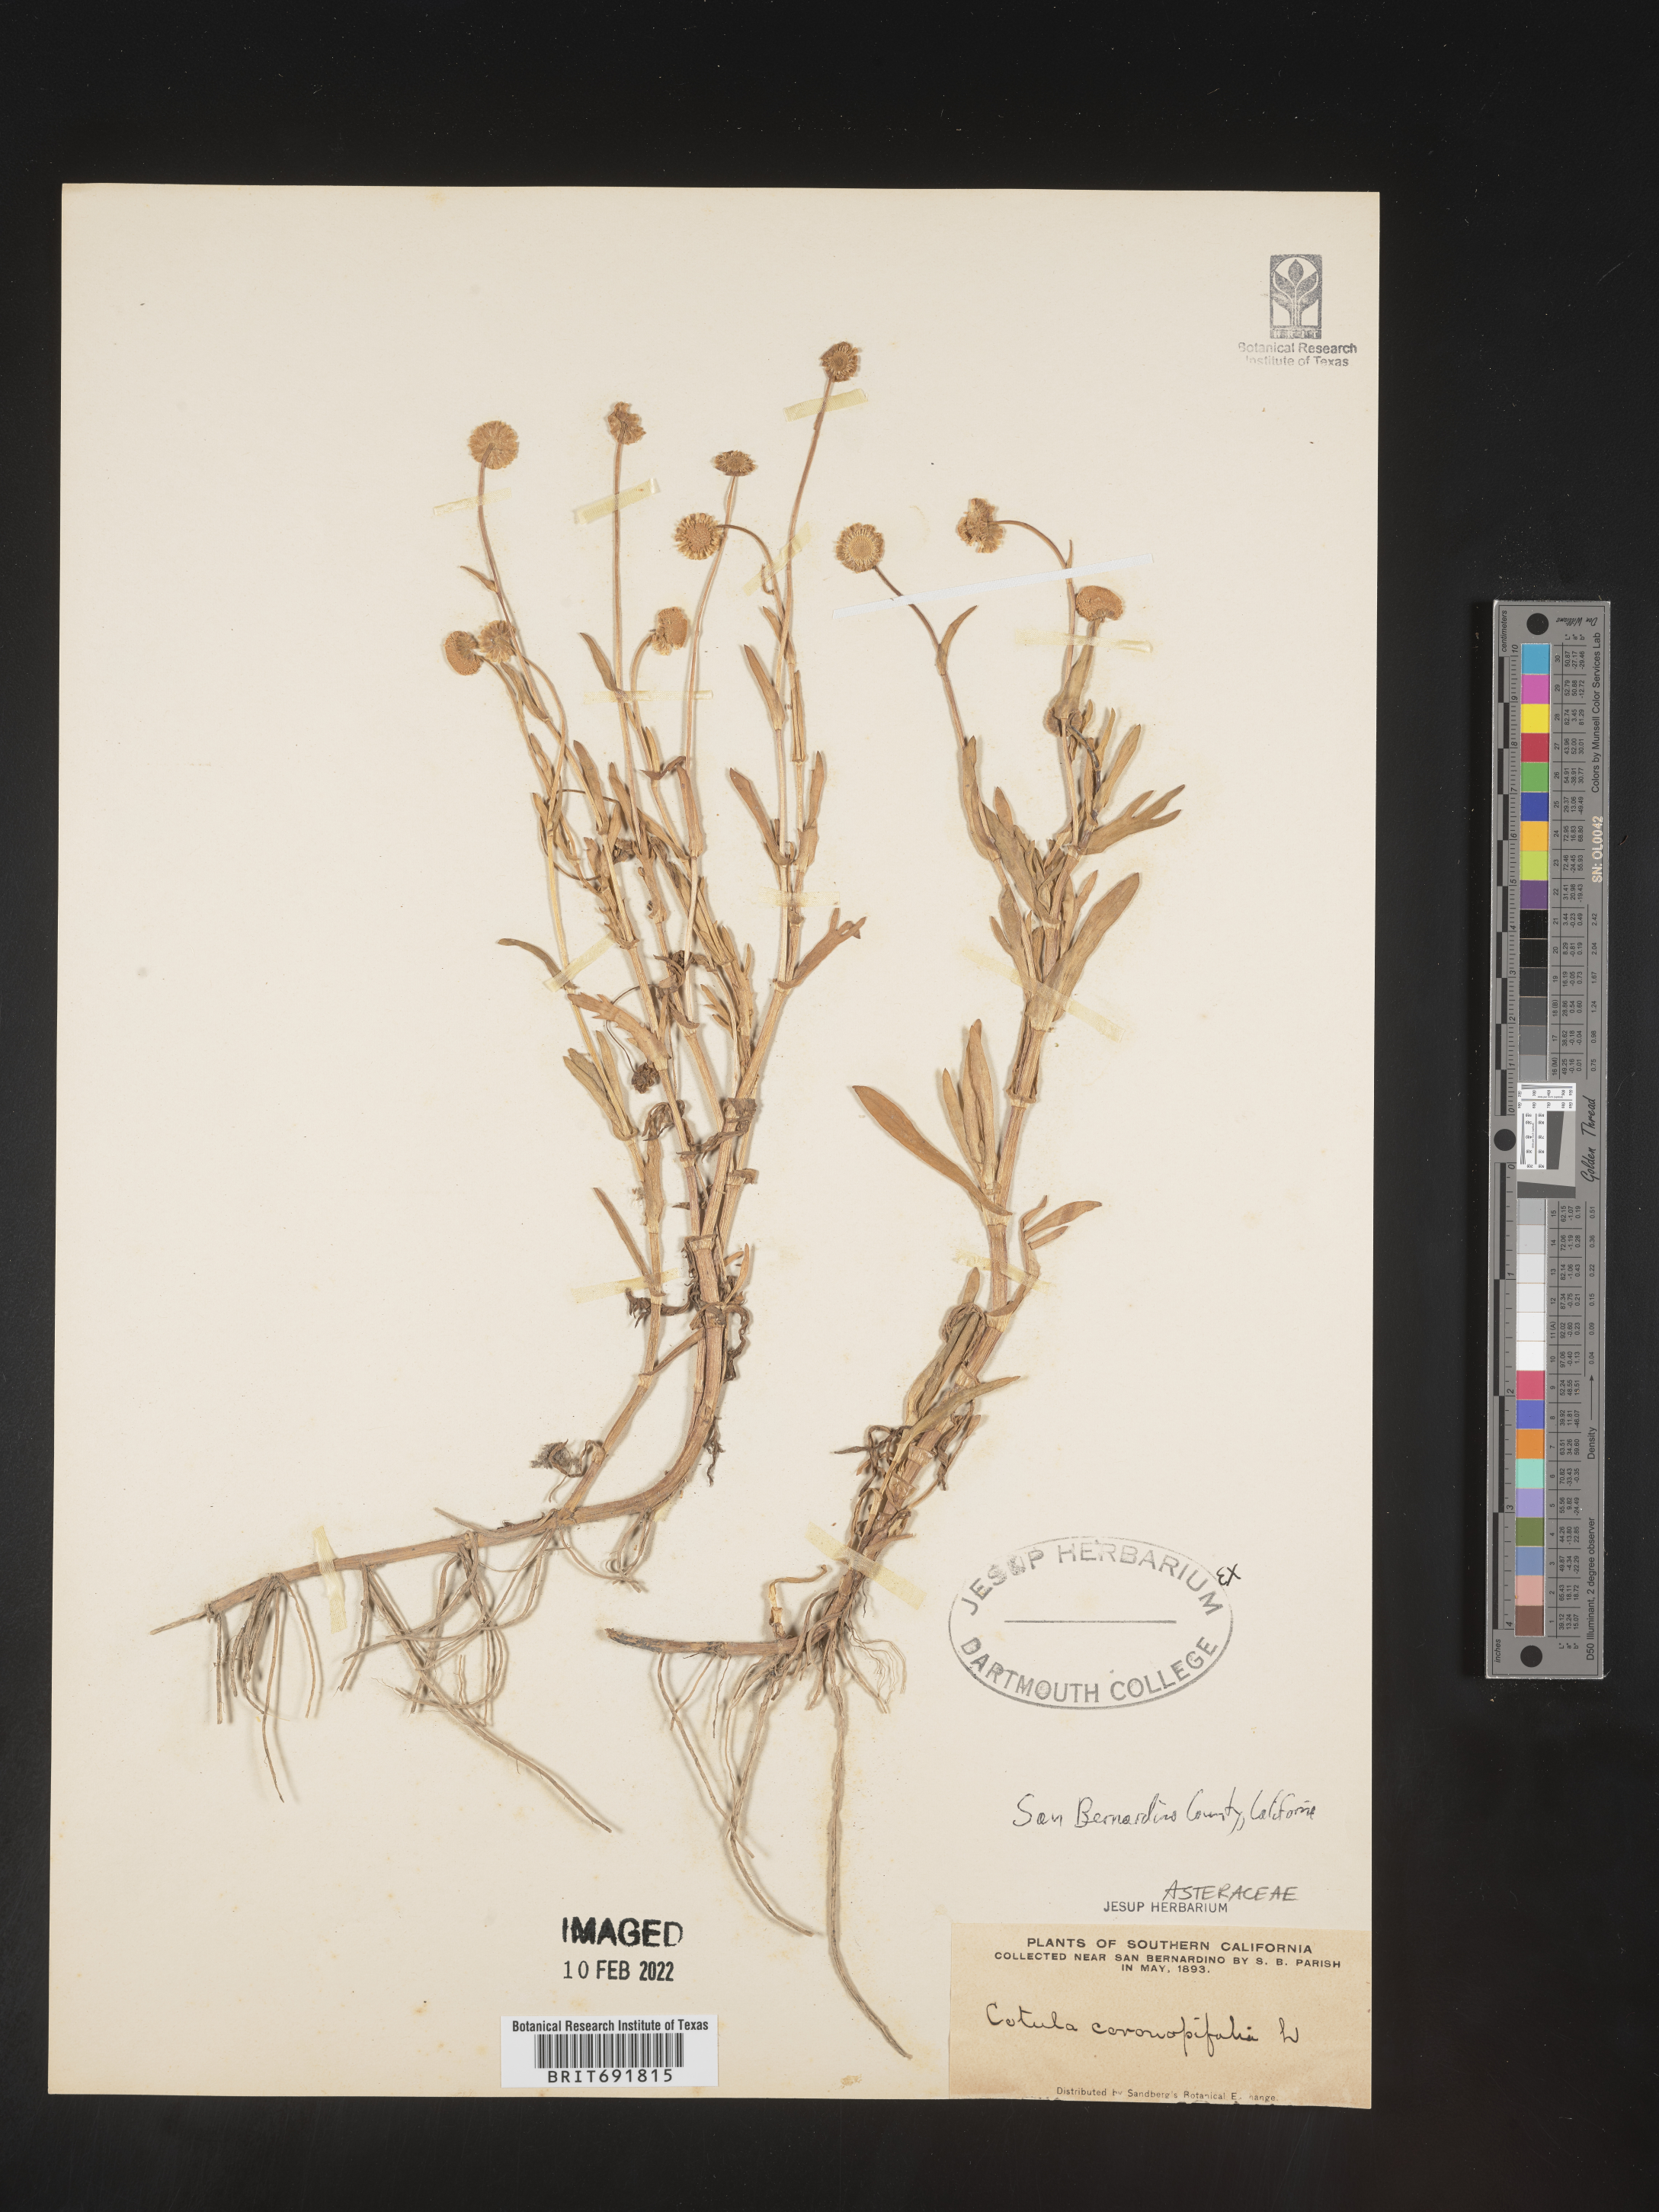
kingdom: Plantae
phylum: Tracheophyta
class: Magnoliopsida
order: Asterales
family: Asteraceae
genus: Cotula
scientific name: Cotula
